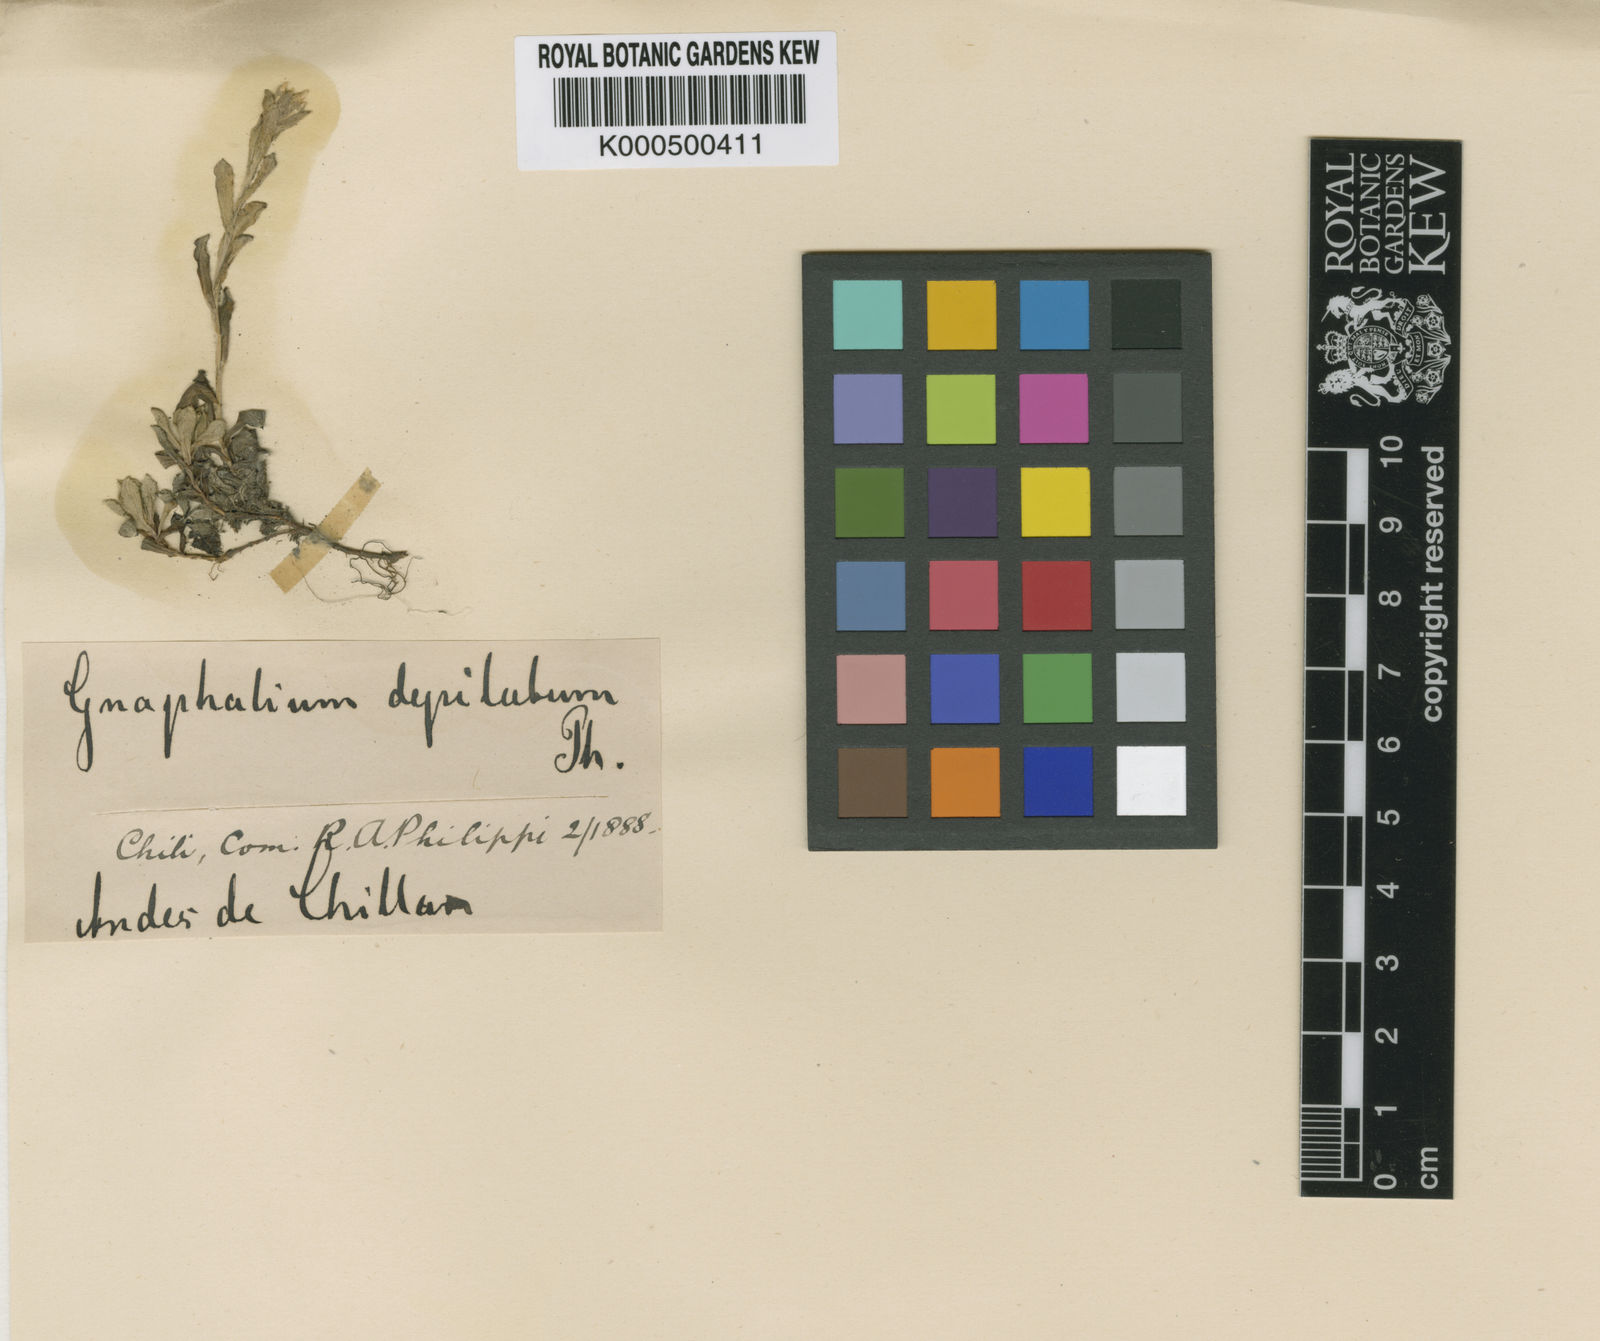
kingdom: Plantae
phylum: Tracheophyta
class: Magnoliopsida
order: Asterales
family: Asteraceae
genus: Gamochaeta
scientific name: Gamochaeta depilata
